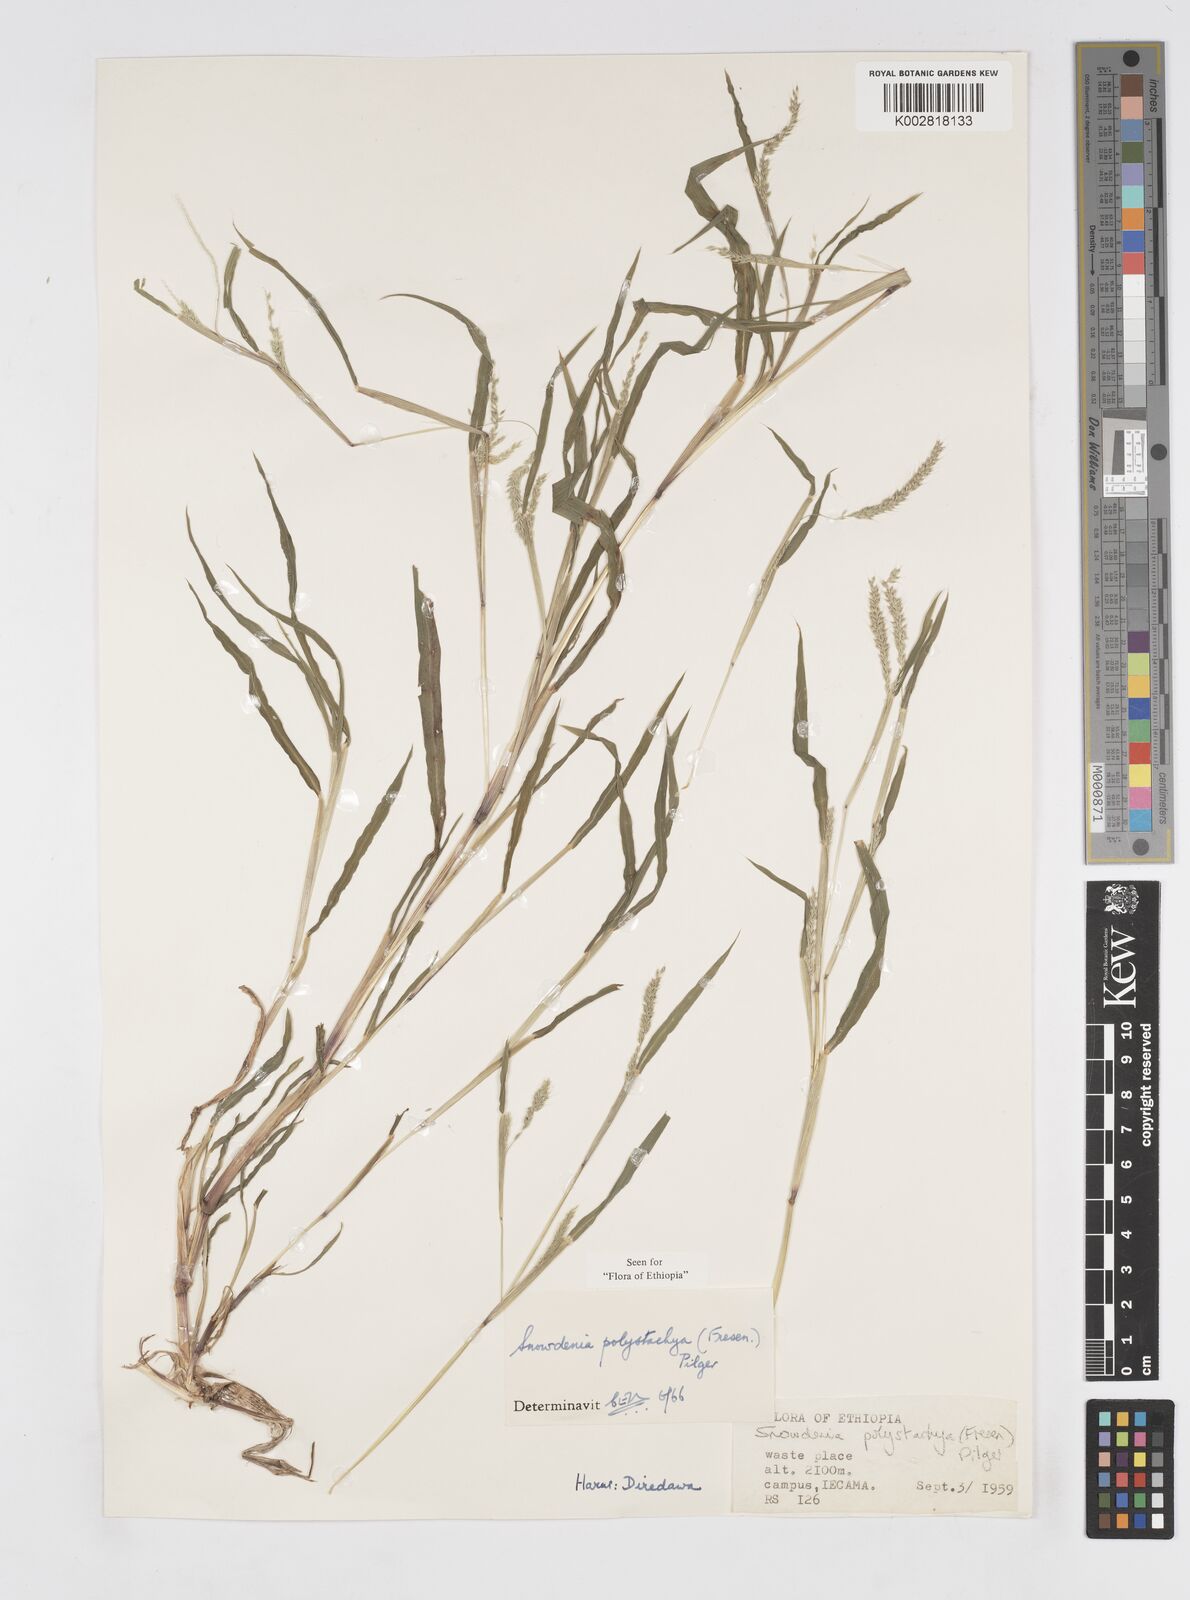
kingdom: Plantae
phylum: Tracheophyta
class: Liliopsida
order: Poales
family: Poaceae
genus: Snowdenia
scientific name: Snowdenia polystachya
